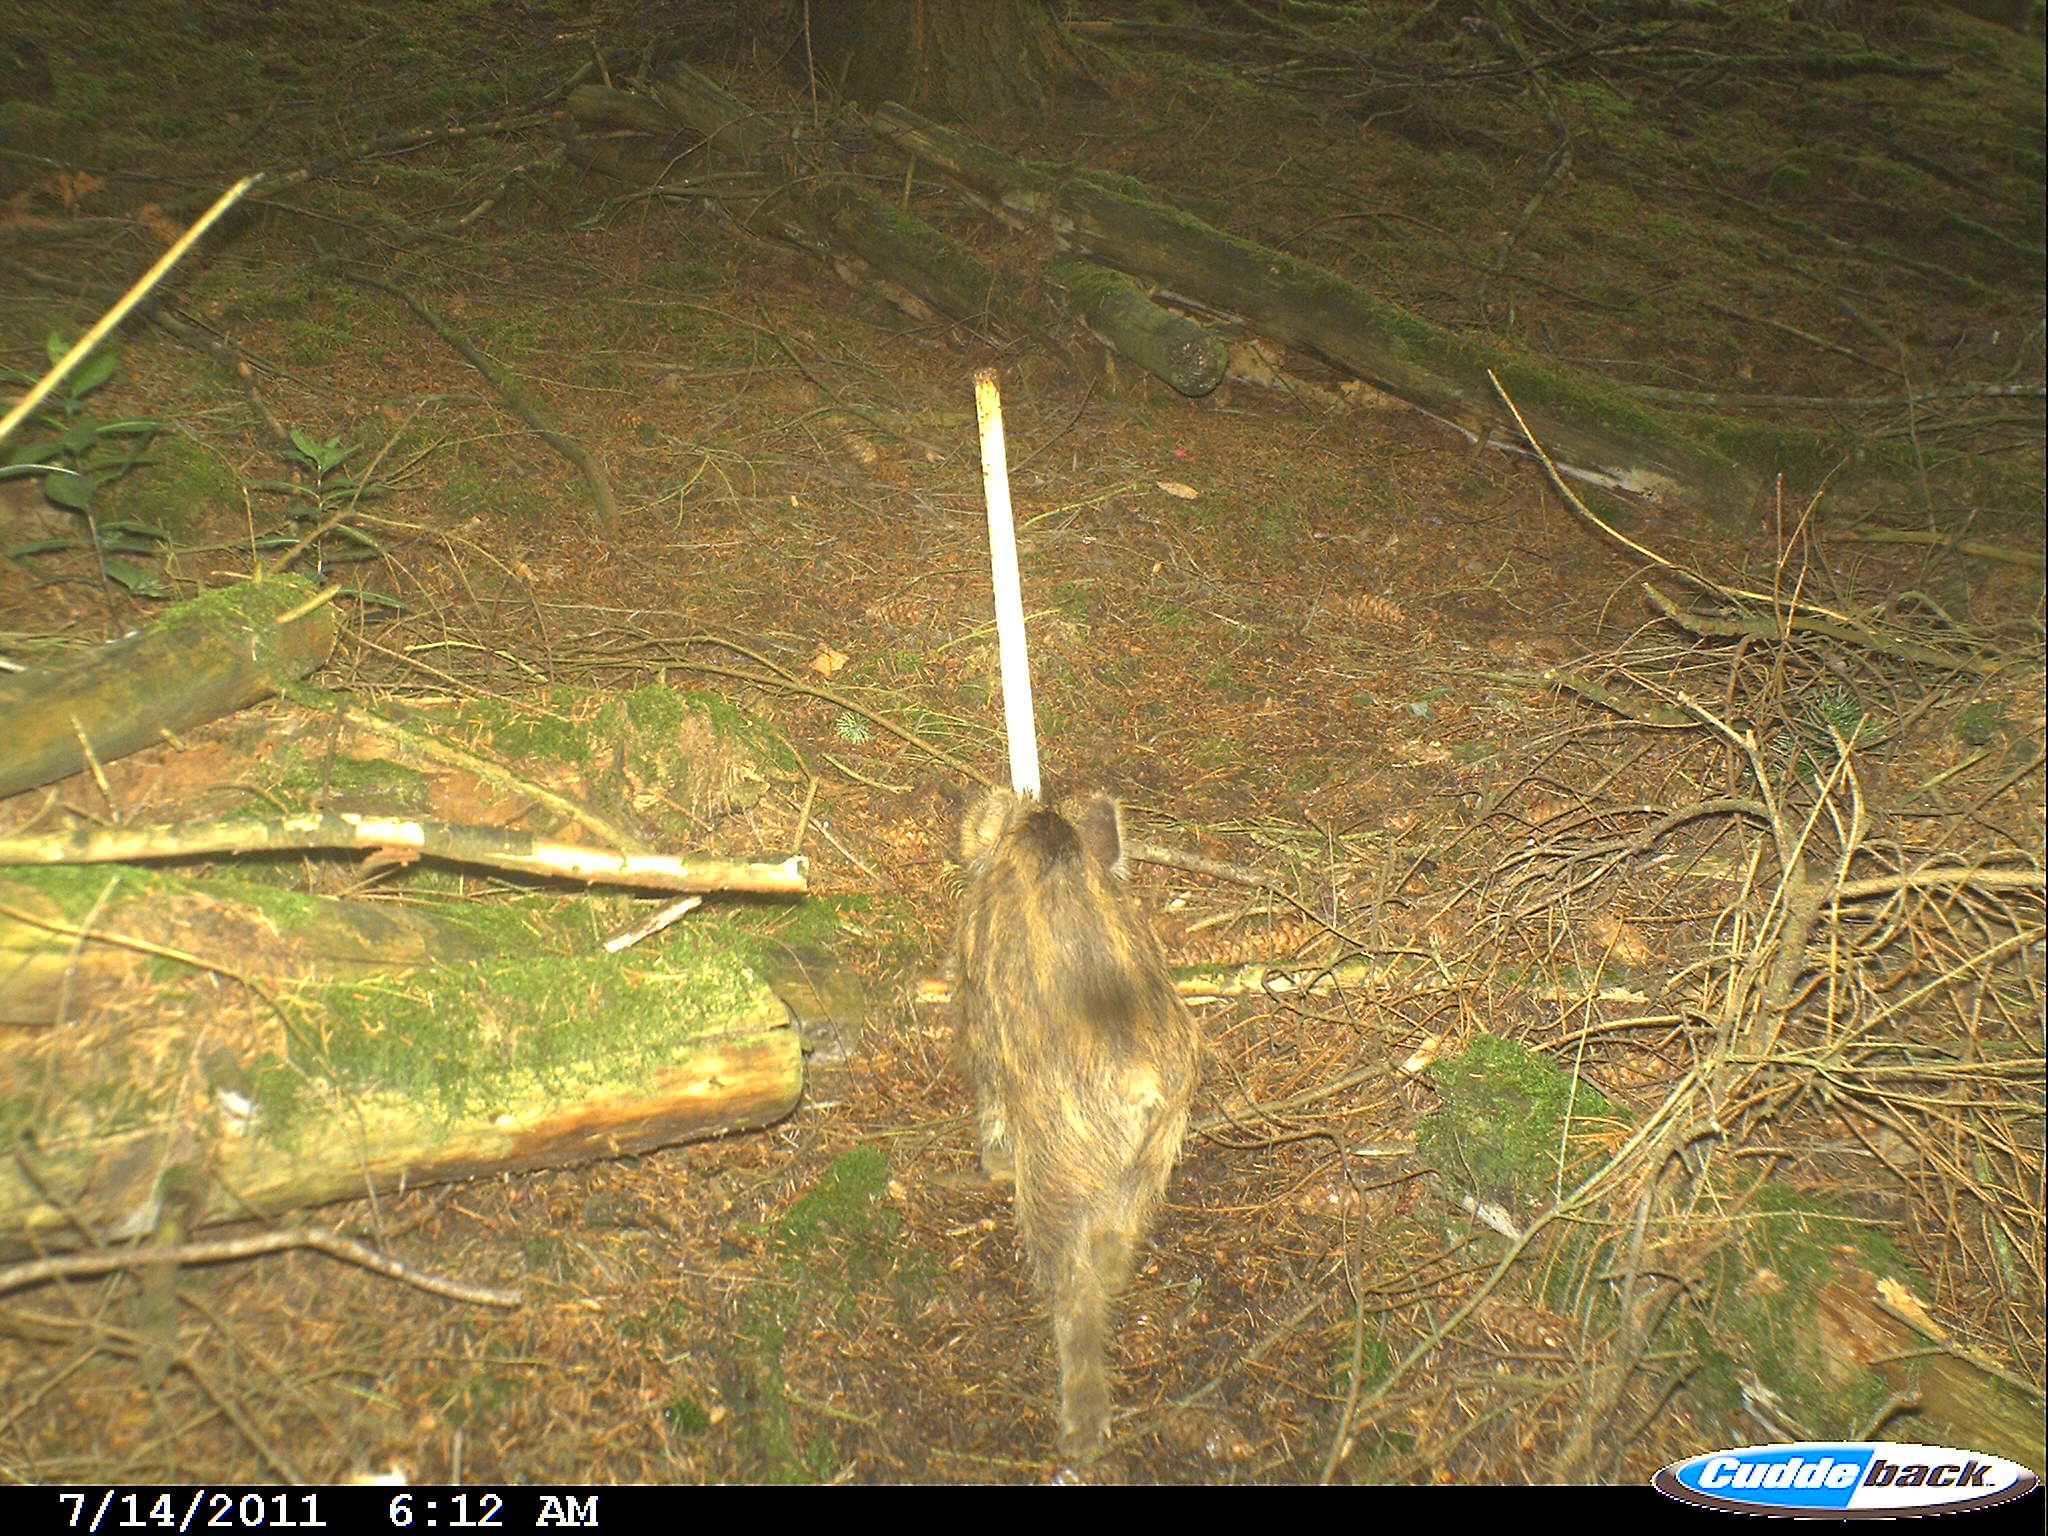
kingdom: Animalia
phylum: Chordata
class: Mammalia
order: Artiodactyla
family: Suidae
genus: Sus
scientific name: Sus scrofa
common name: Wild boar
